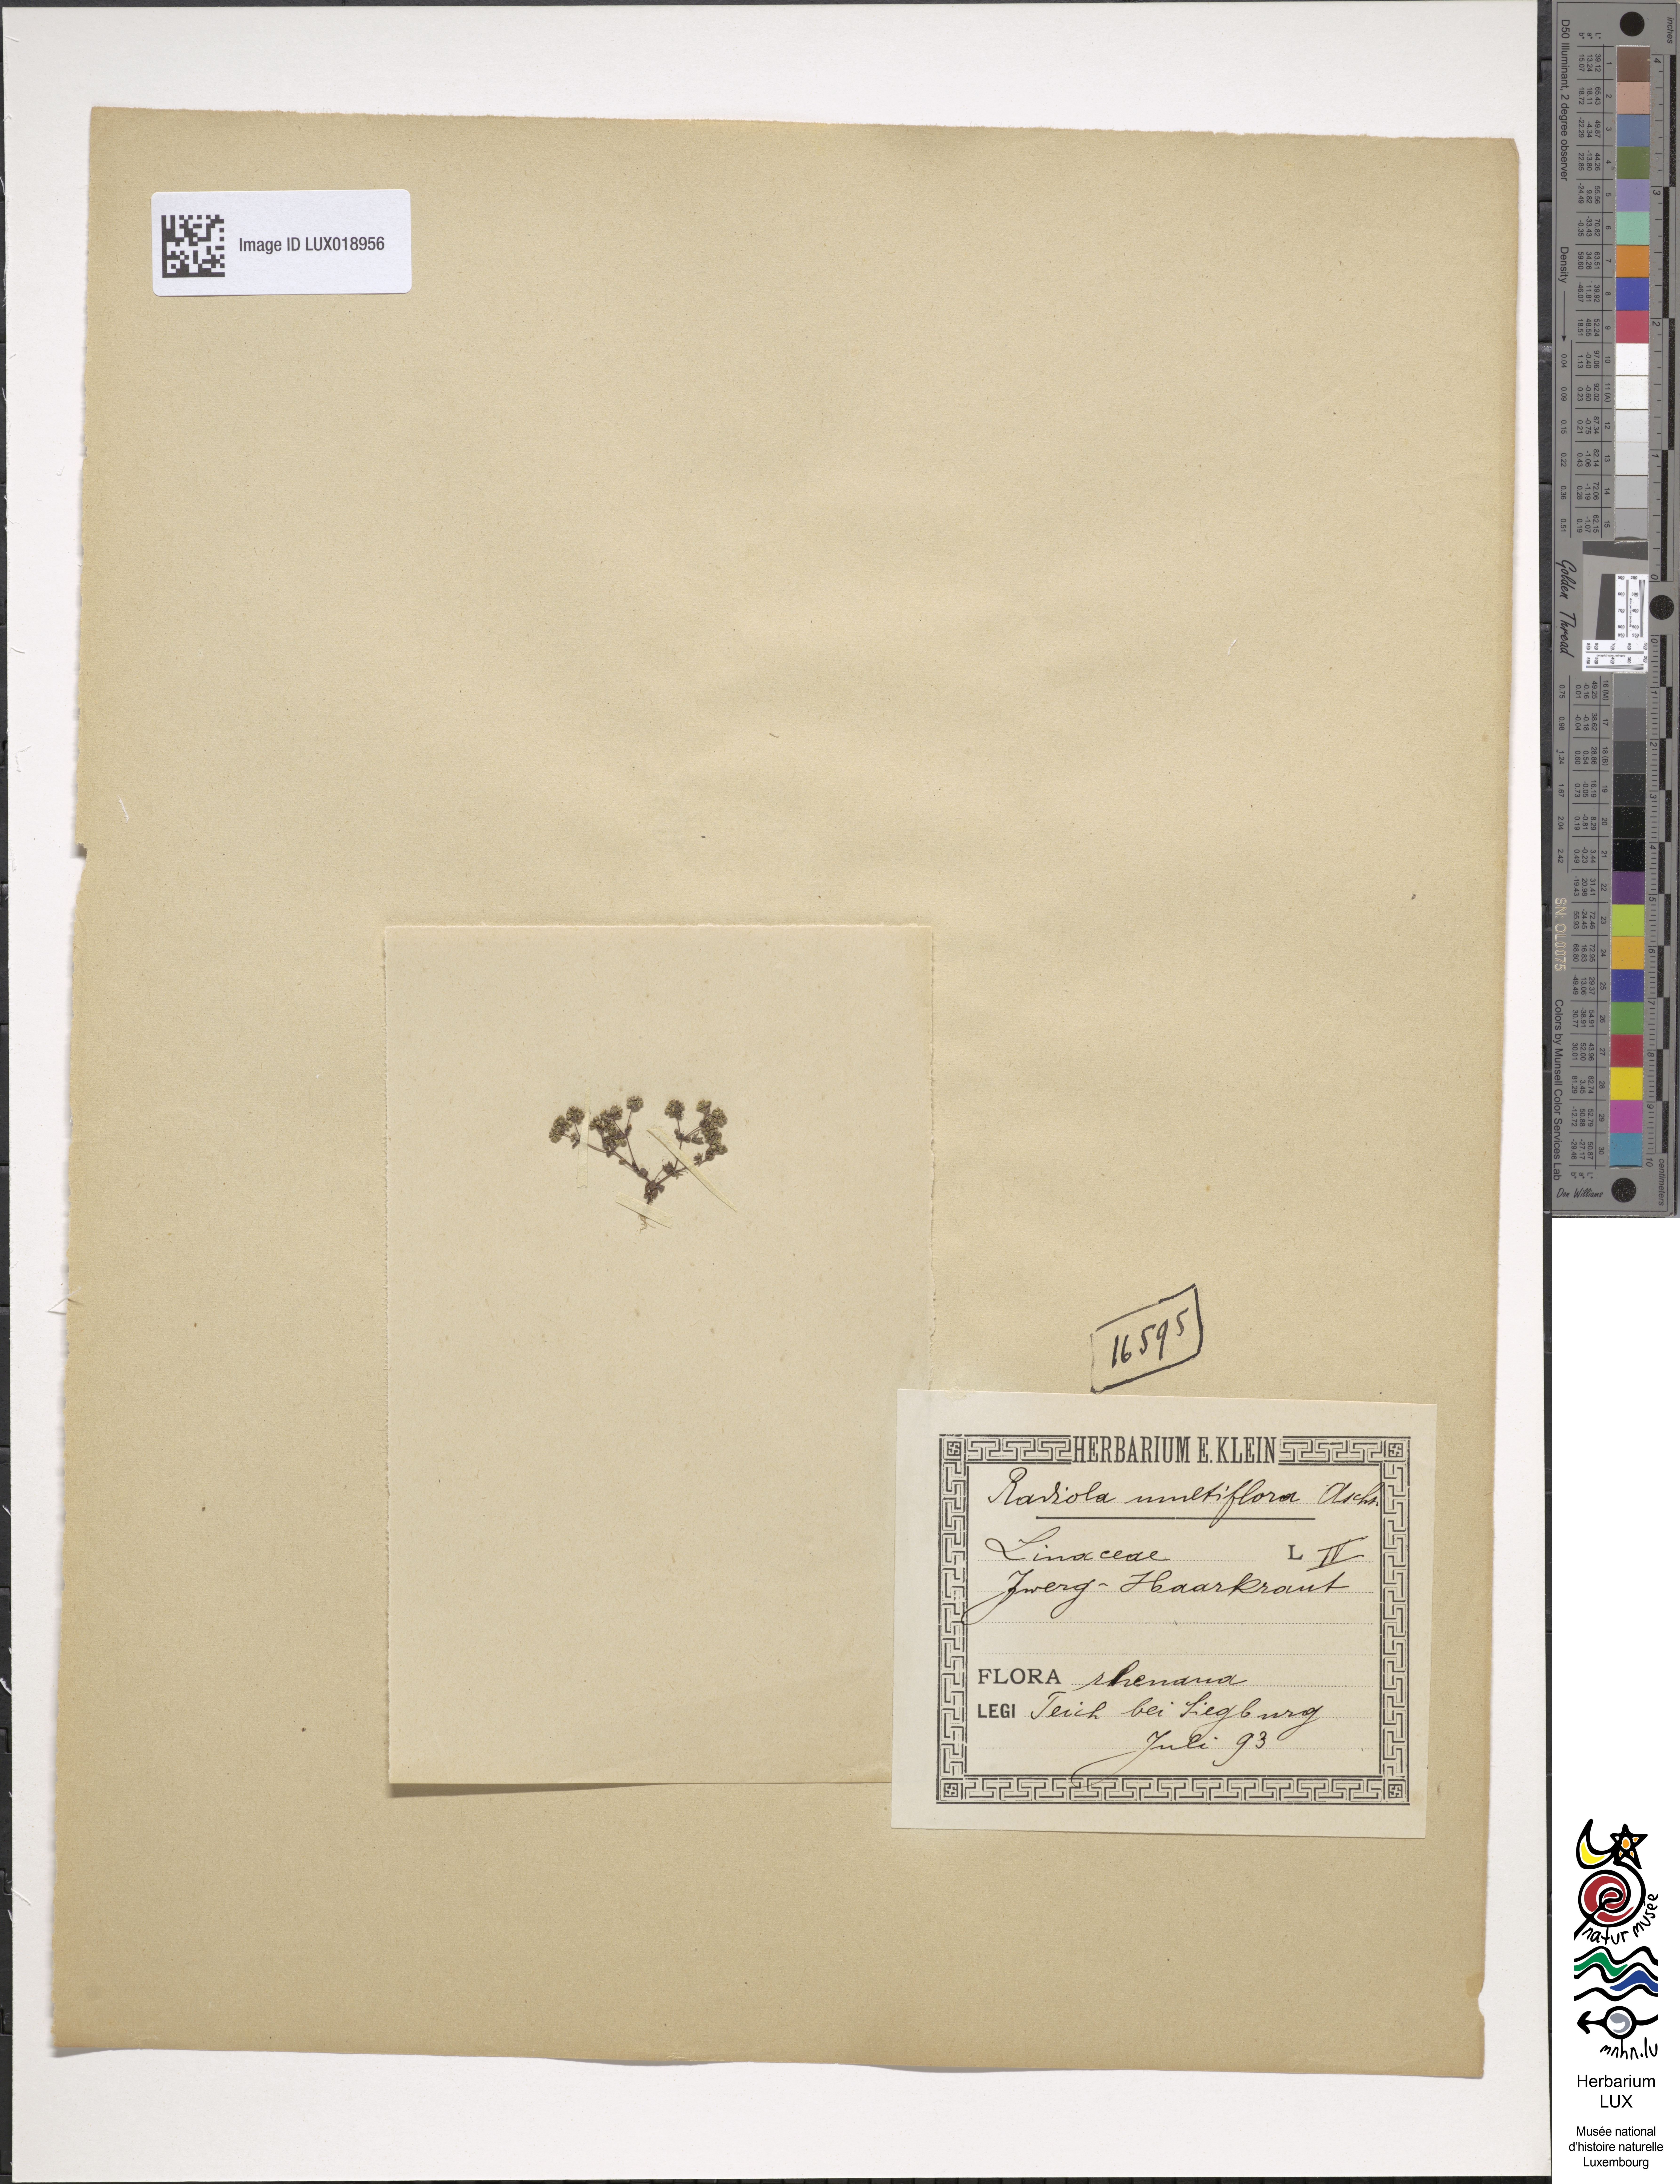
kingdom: Plantae
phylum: Tracheophyta
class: Magnoliopsida
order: Malpighiales
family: Linaceae
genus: Radiola
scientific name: Radiola linoides
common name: Allseed
